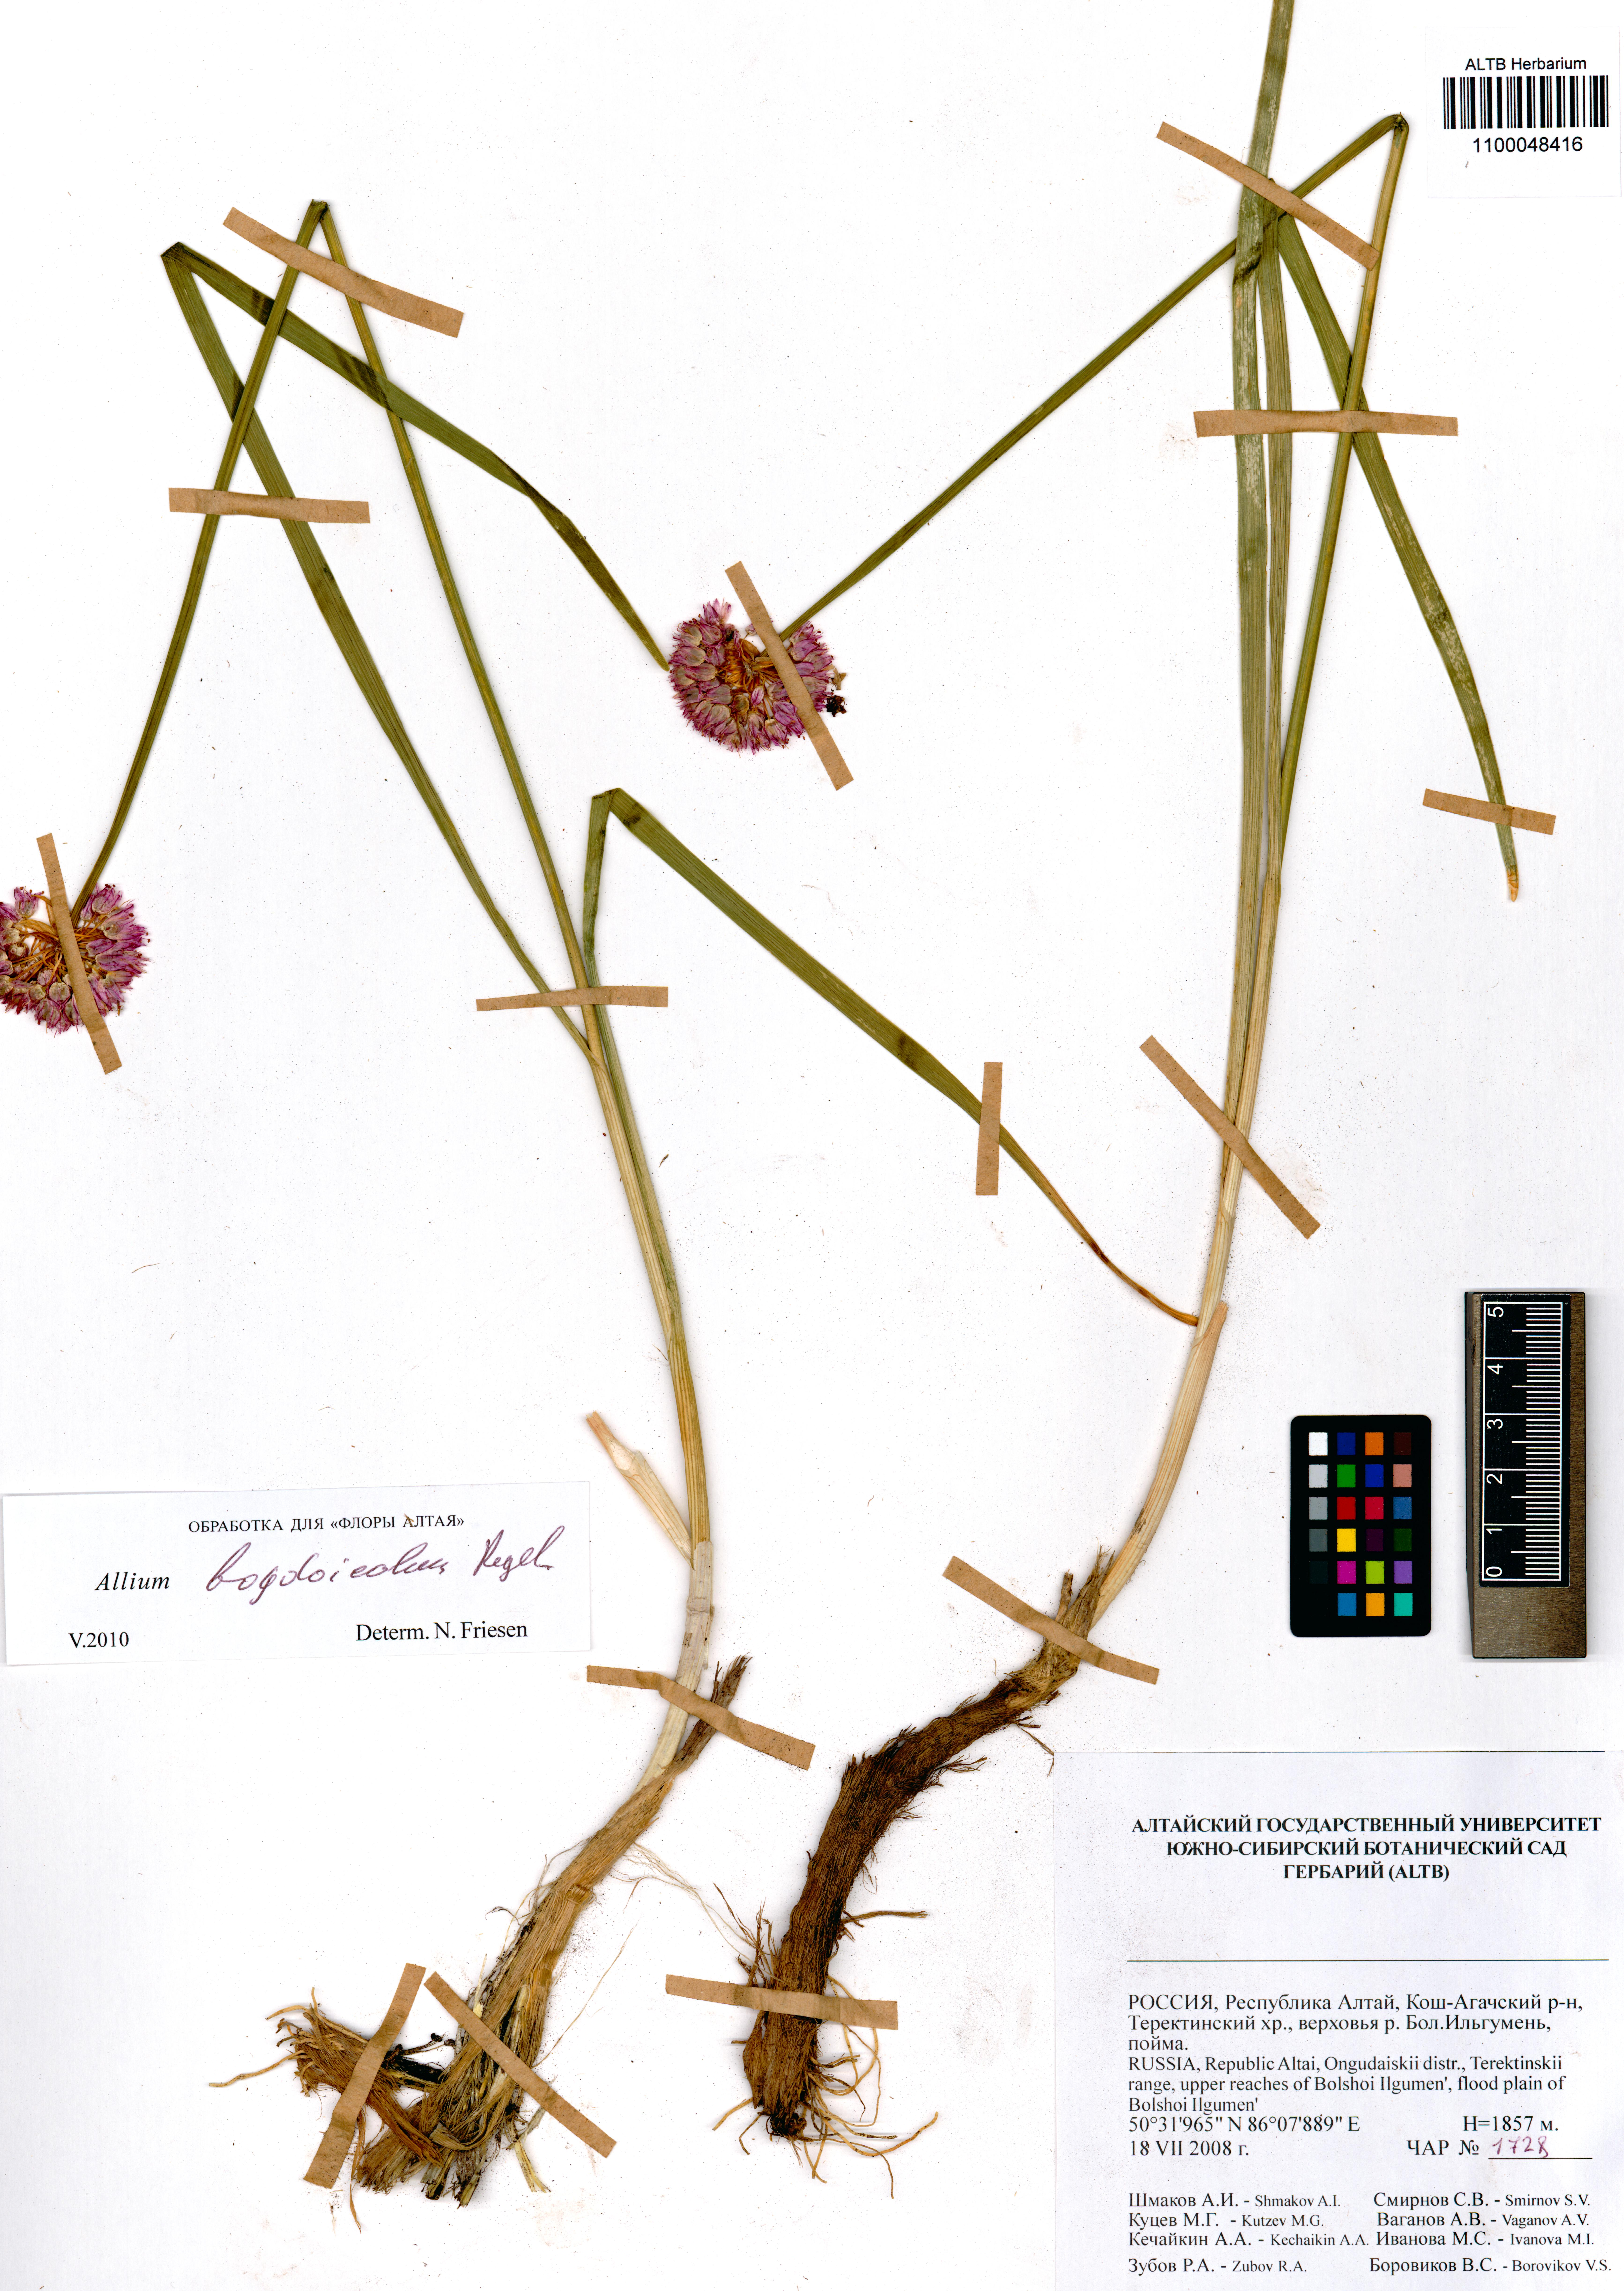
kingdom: Plantae
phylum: Tracheophyta
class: Liliopsida
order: Asparagales
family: Amaryllidaceae
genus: Allium
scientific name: Allium schrenkii
